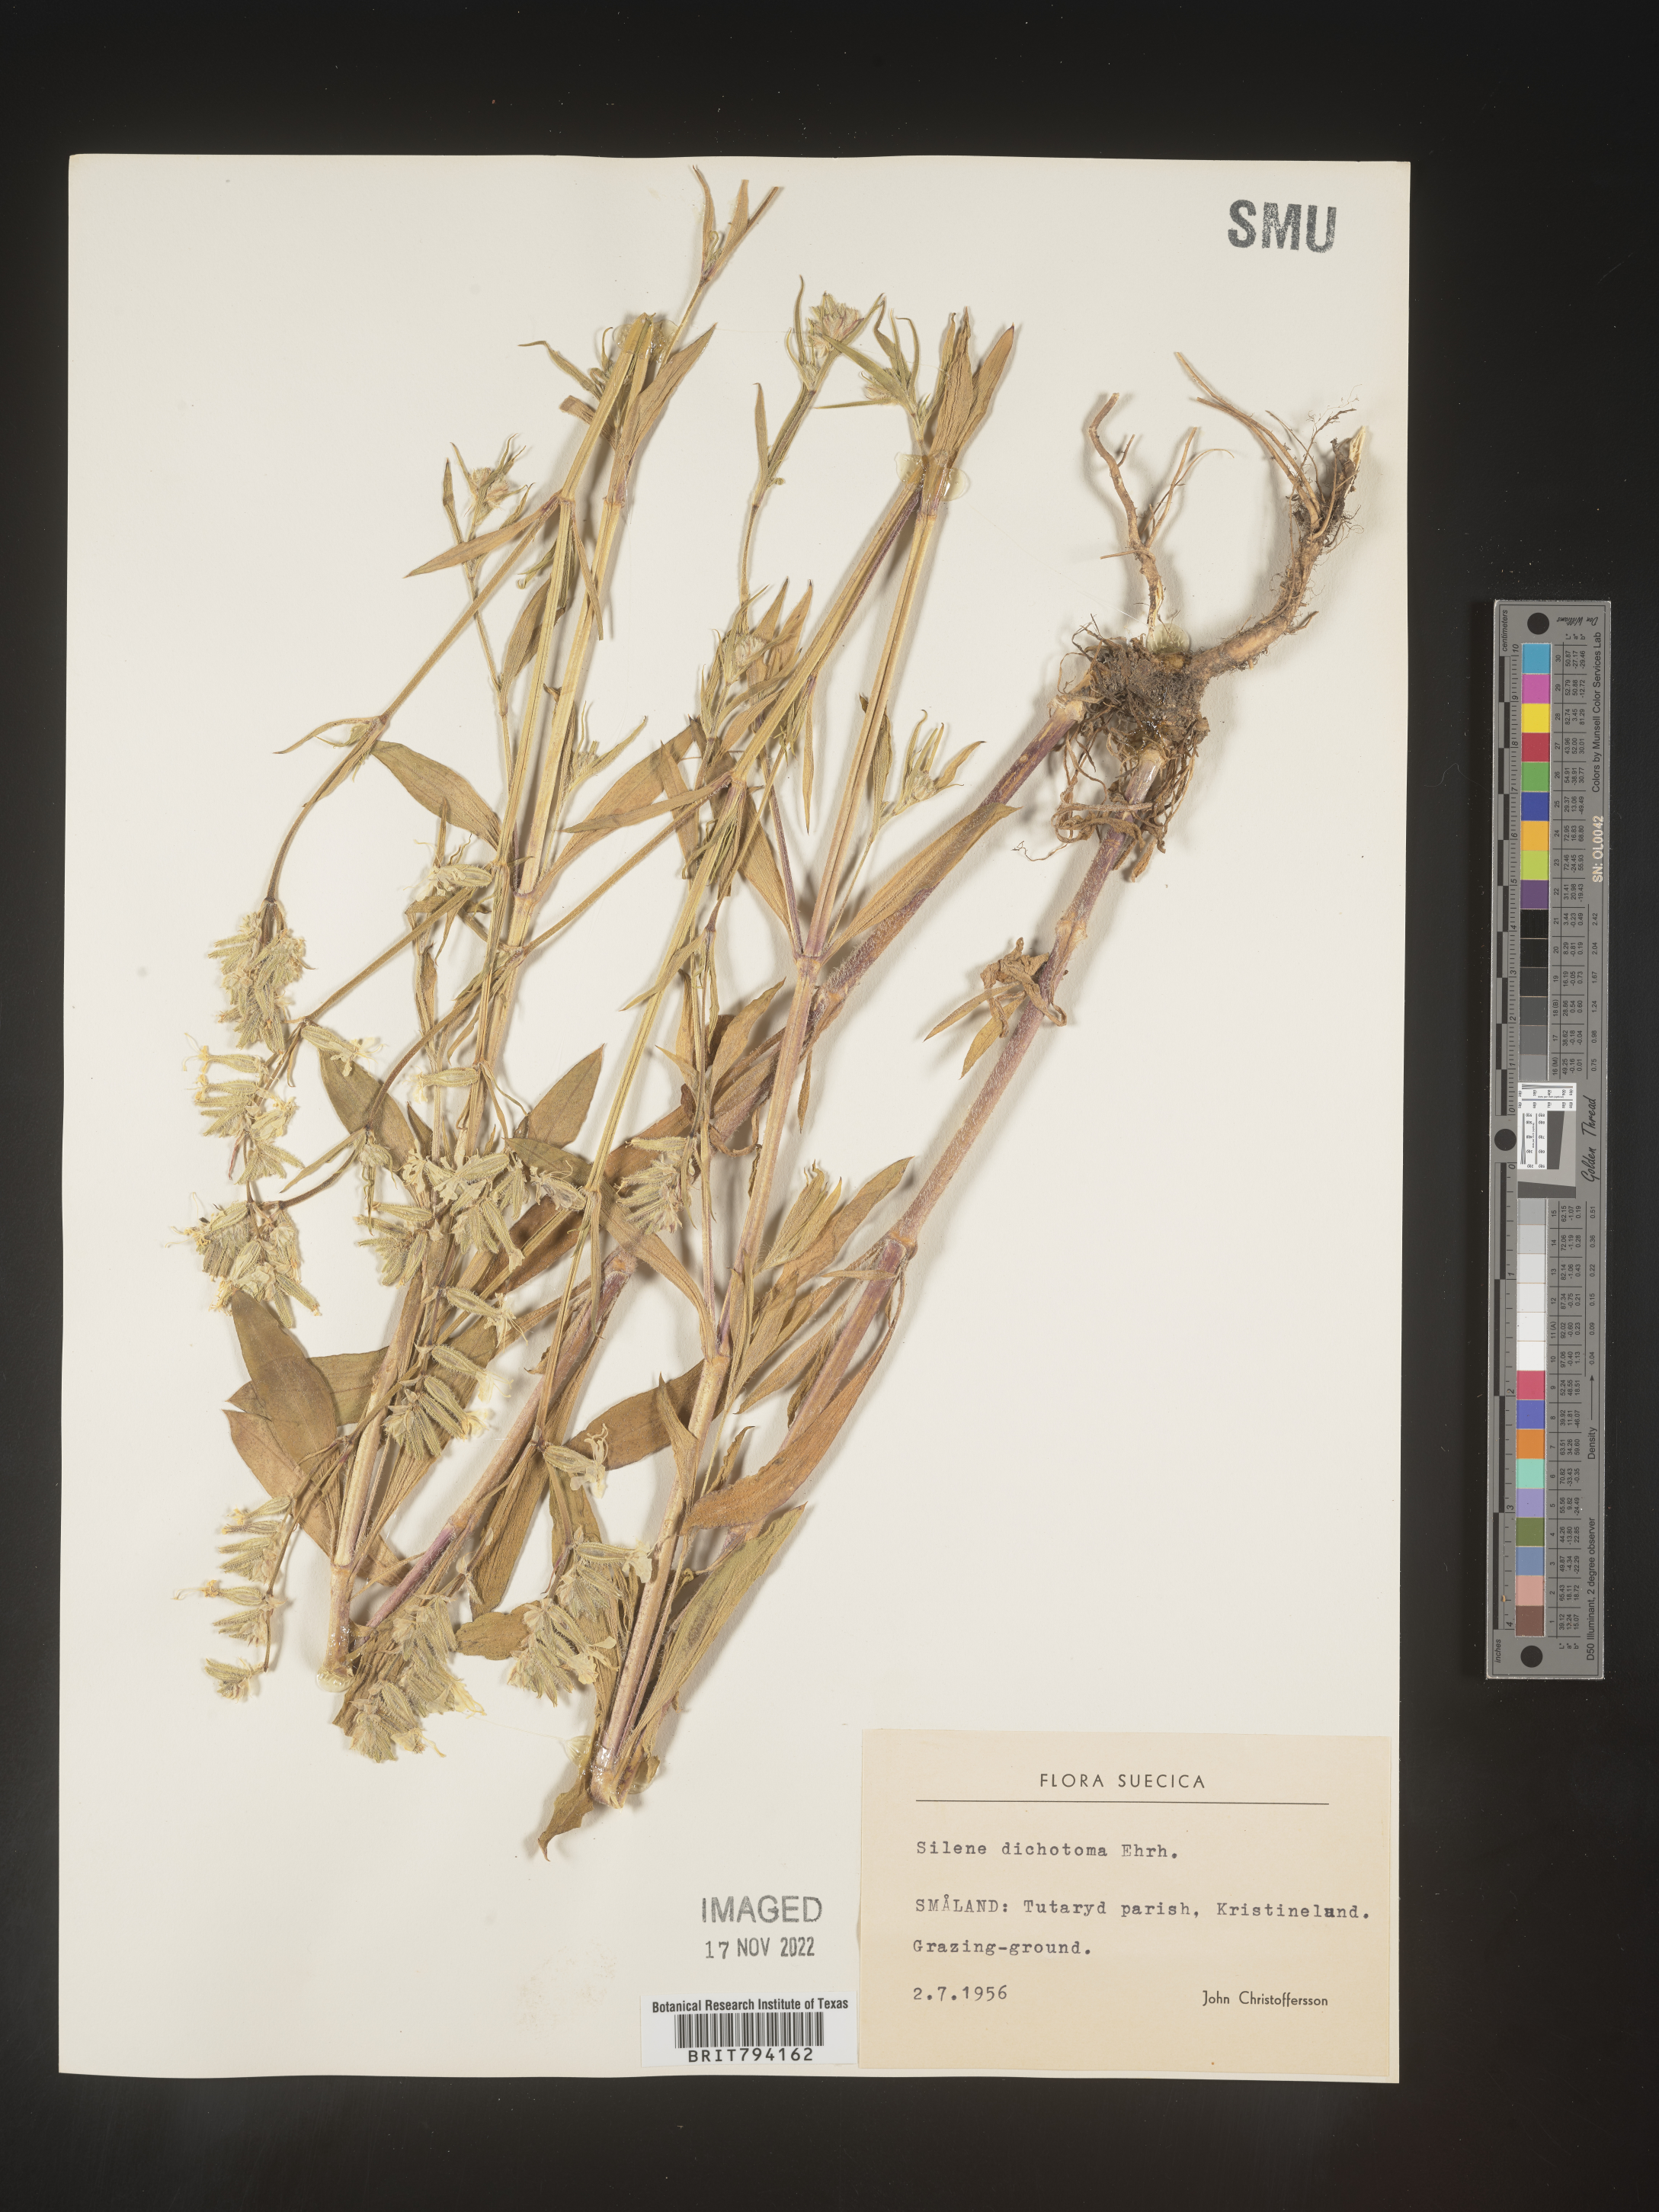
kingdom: Plantae
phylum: Tracheophyta
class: Magnoliopsida
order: Caryophyllales
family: Caryophyllaceae
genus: Silene
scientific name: Silene dichotoma
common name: Forked catchfly
